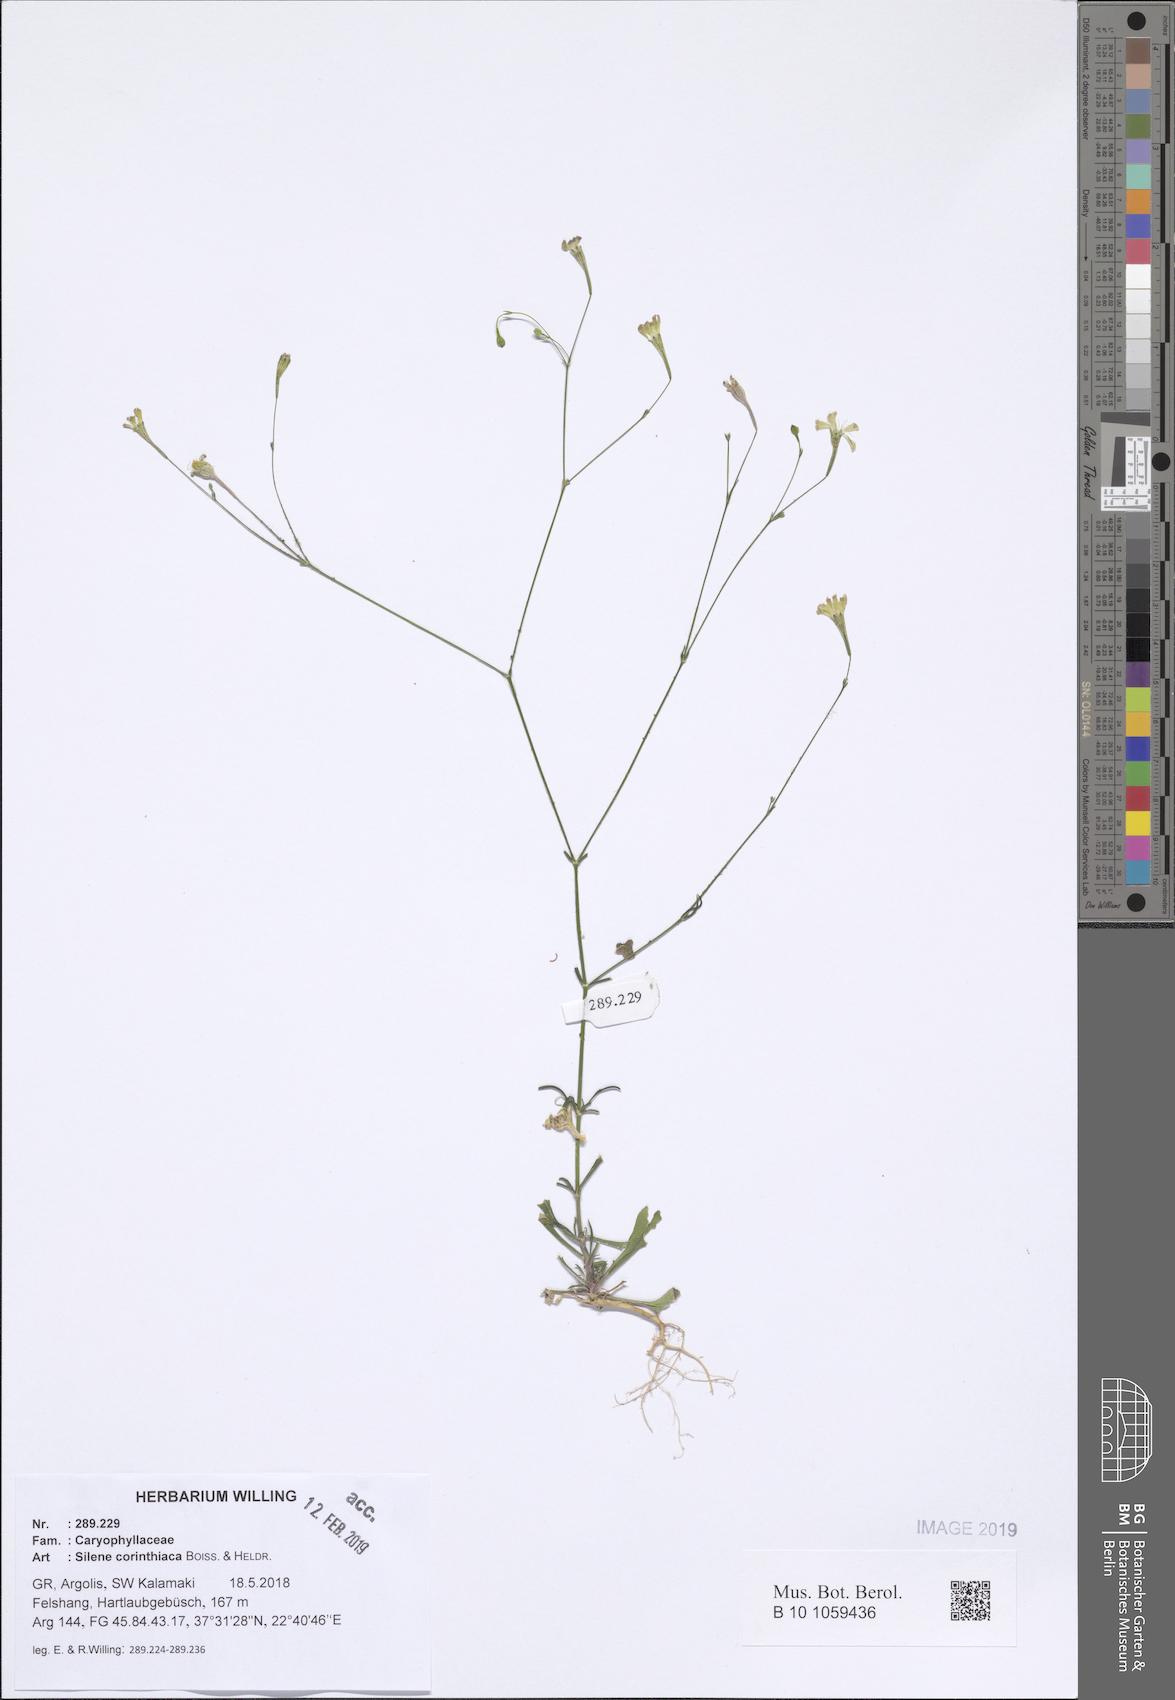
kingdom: Plantae
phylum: Tracheophyta
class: Magnoliopsida
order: Caryophyllales
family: Caryophyllaceae
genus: Silene
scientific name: Silene corinthiaca
